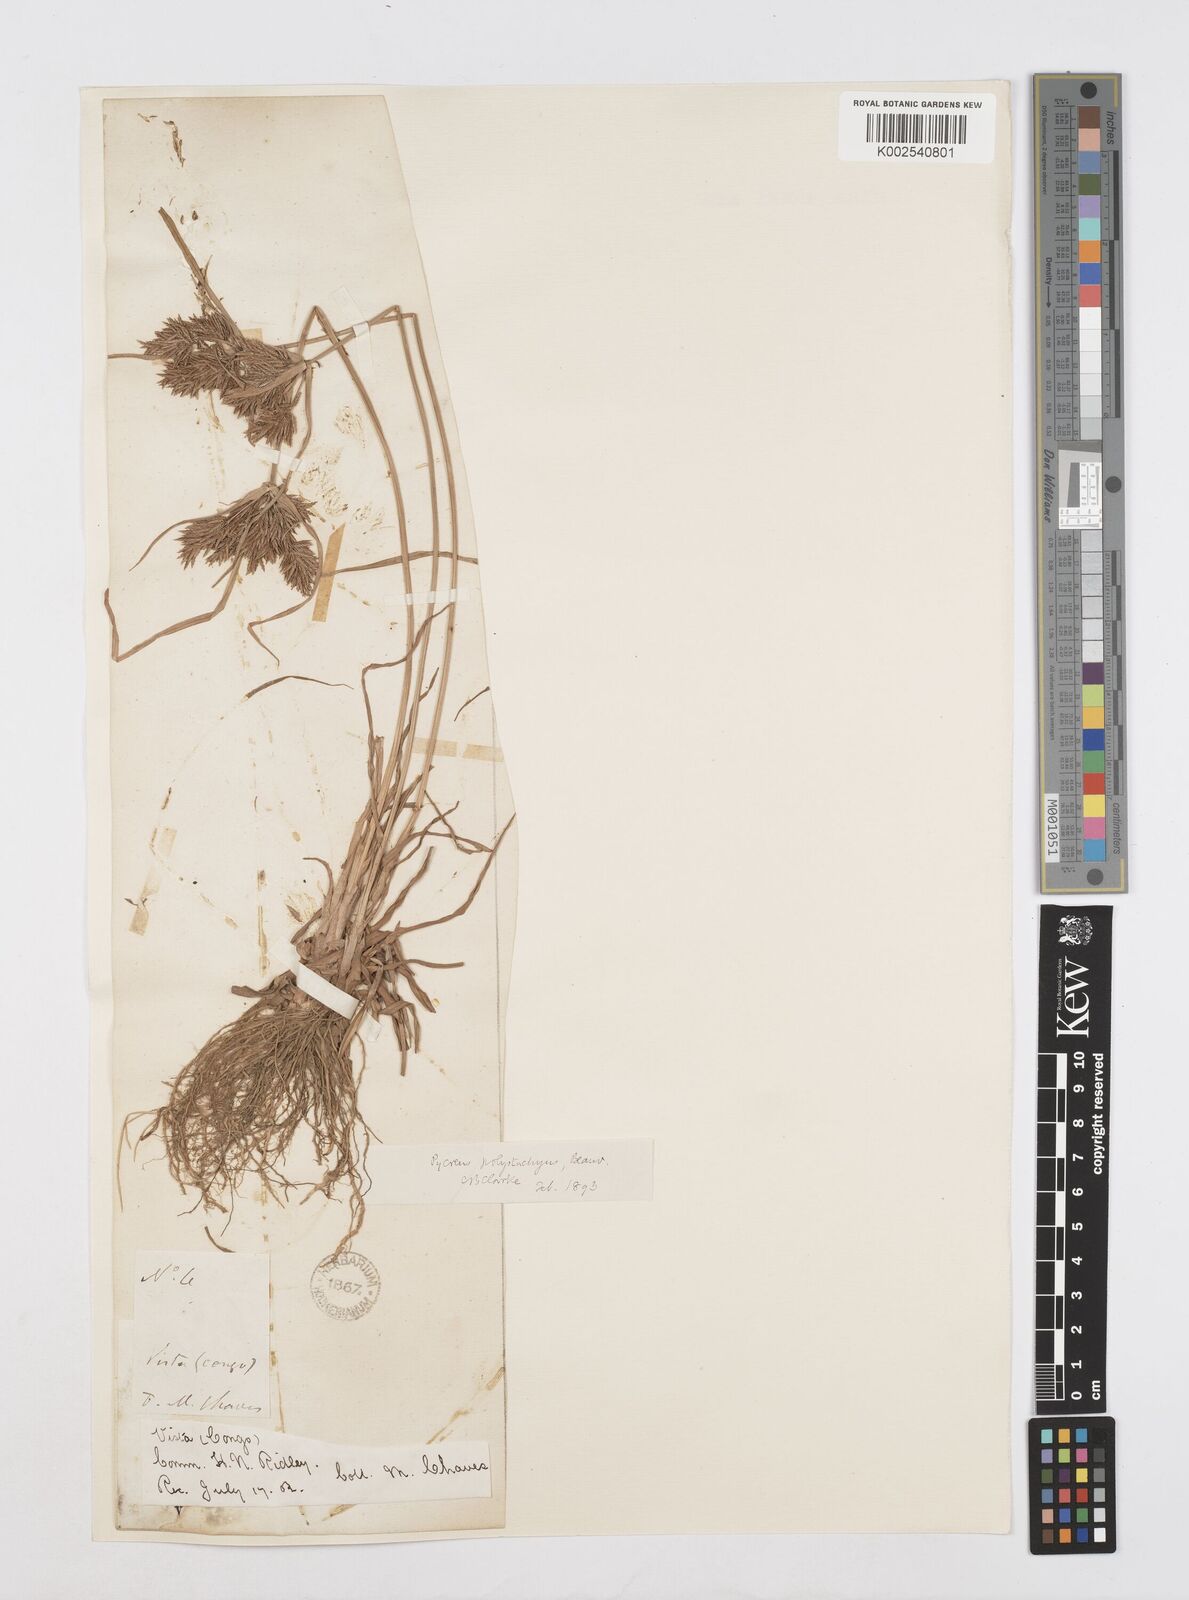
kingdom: Plantae
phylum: Tracheophyta
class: Liliopsida
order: Poales
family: Cyperaceae
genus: Cyperus
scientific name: Cyperus polystachyos
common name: Bunchy flat sedge
